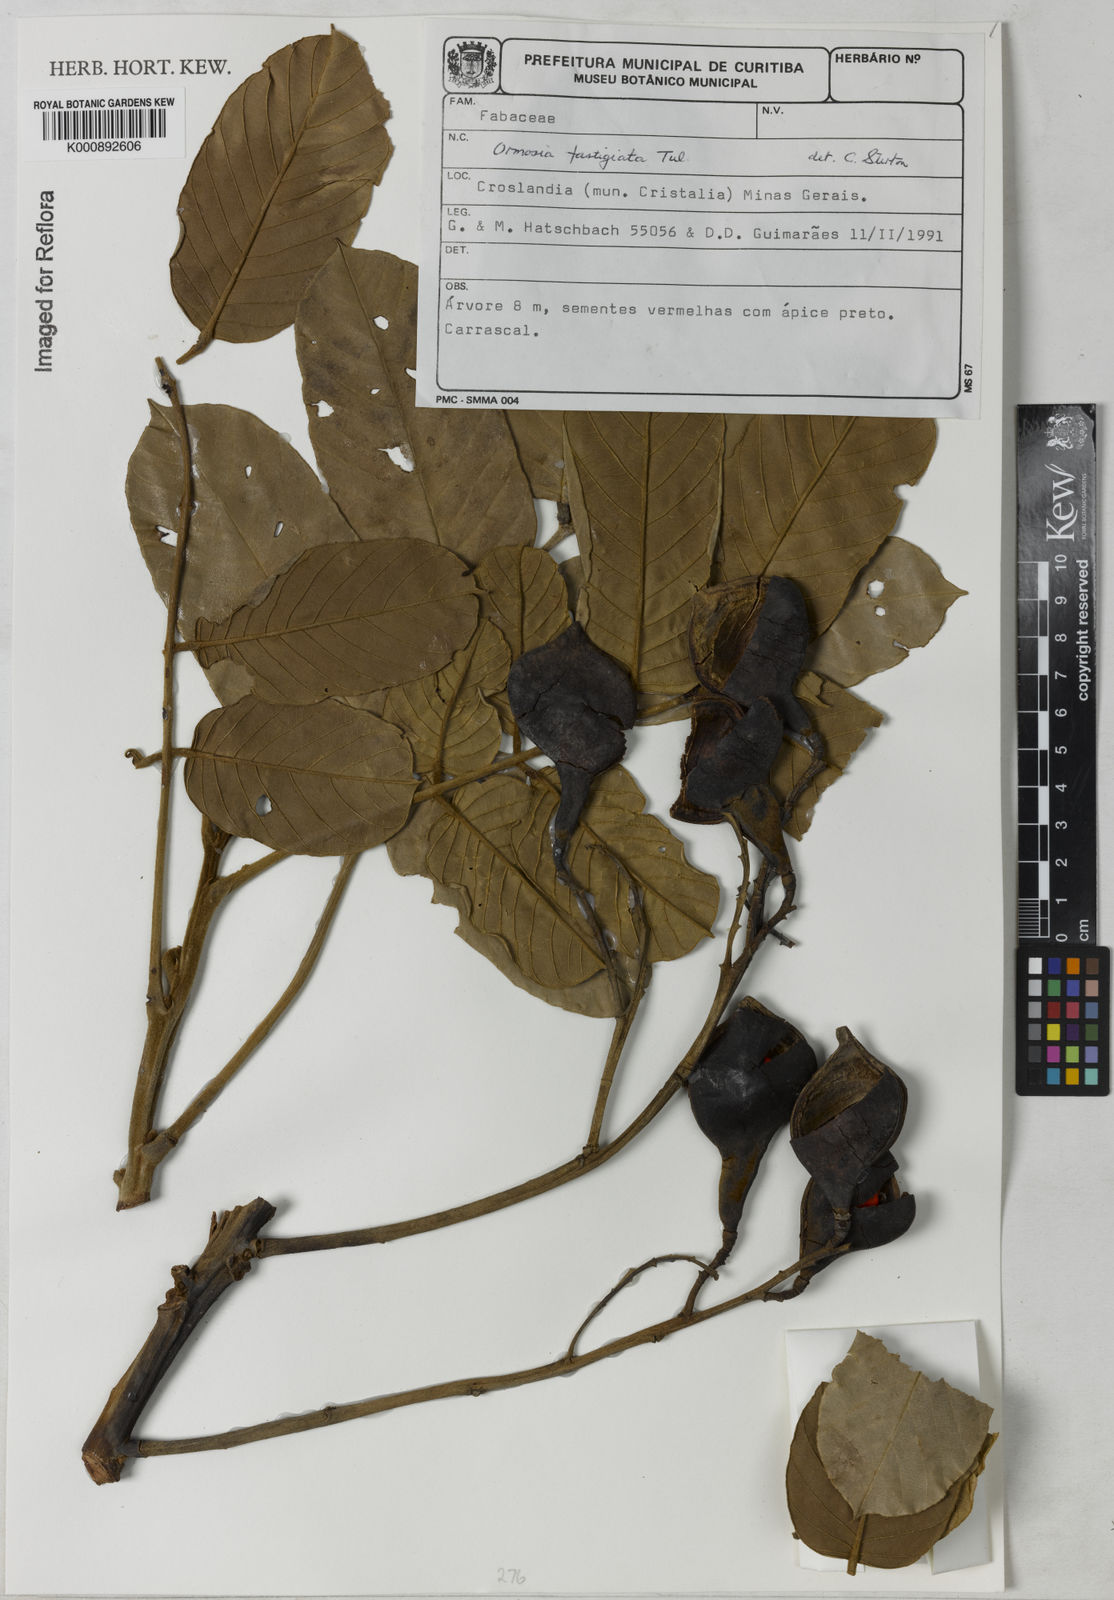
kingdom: Plantae
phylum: Tracheophyta
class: Magnoliopsida
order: Fabales
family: Fabaceae
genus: Ormosia
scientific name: Ormosia fastigiata
